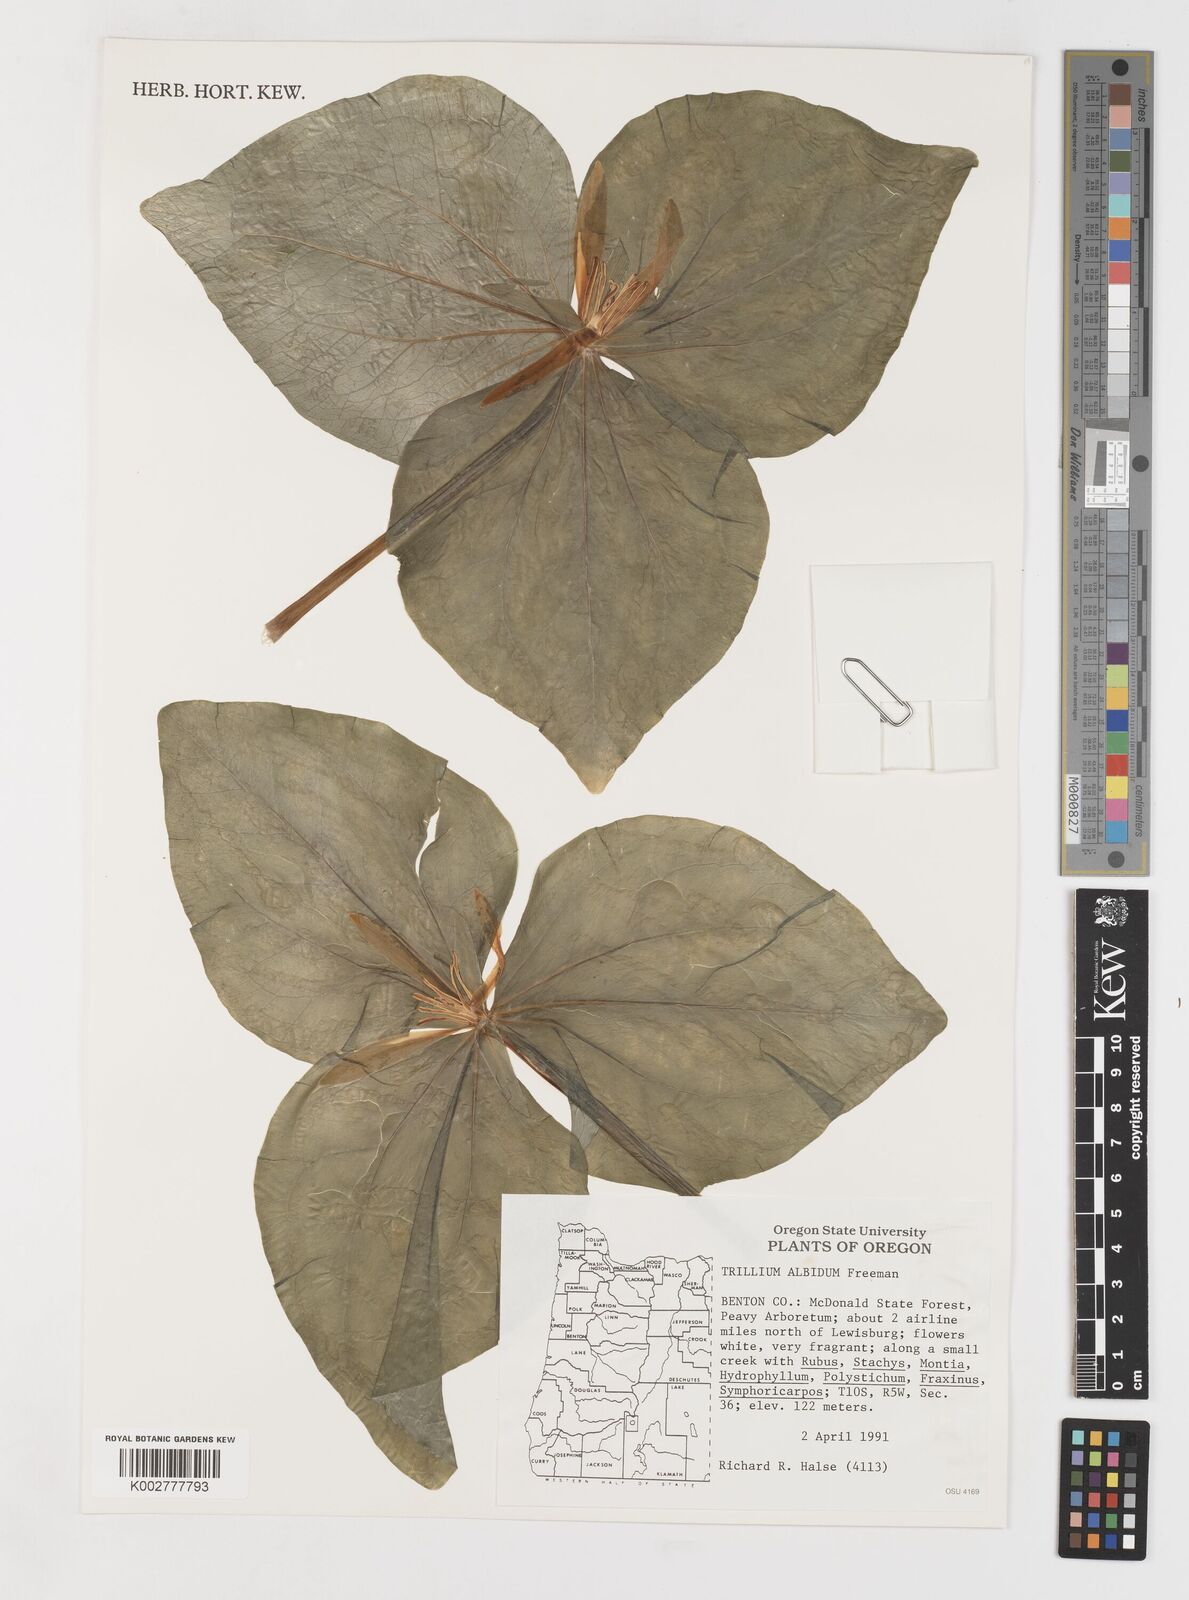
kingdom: Plantae
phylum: Tracheophyta
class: Liliopsida
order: Liliales
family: Melanthiaceae
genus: Trillium
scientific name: Trillium albidum
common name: Freeman's trillium
